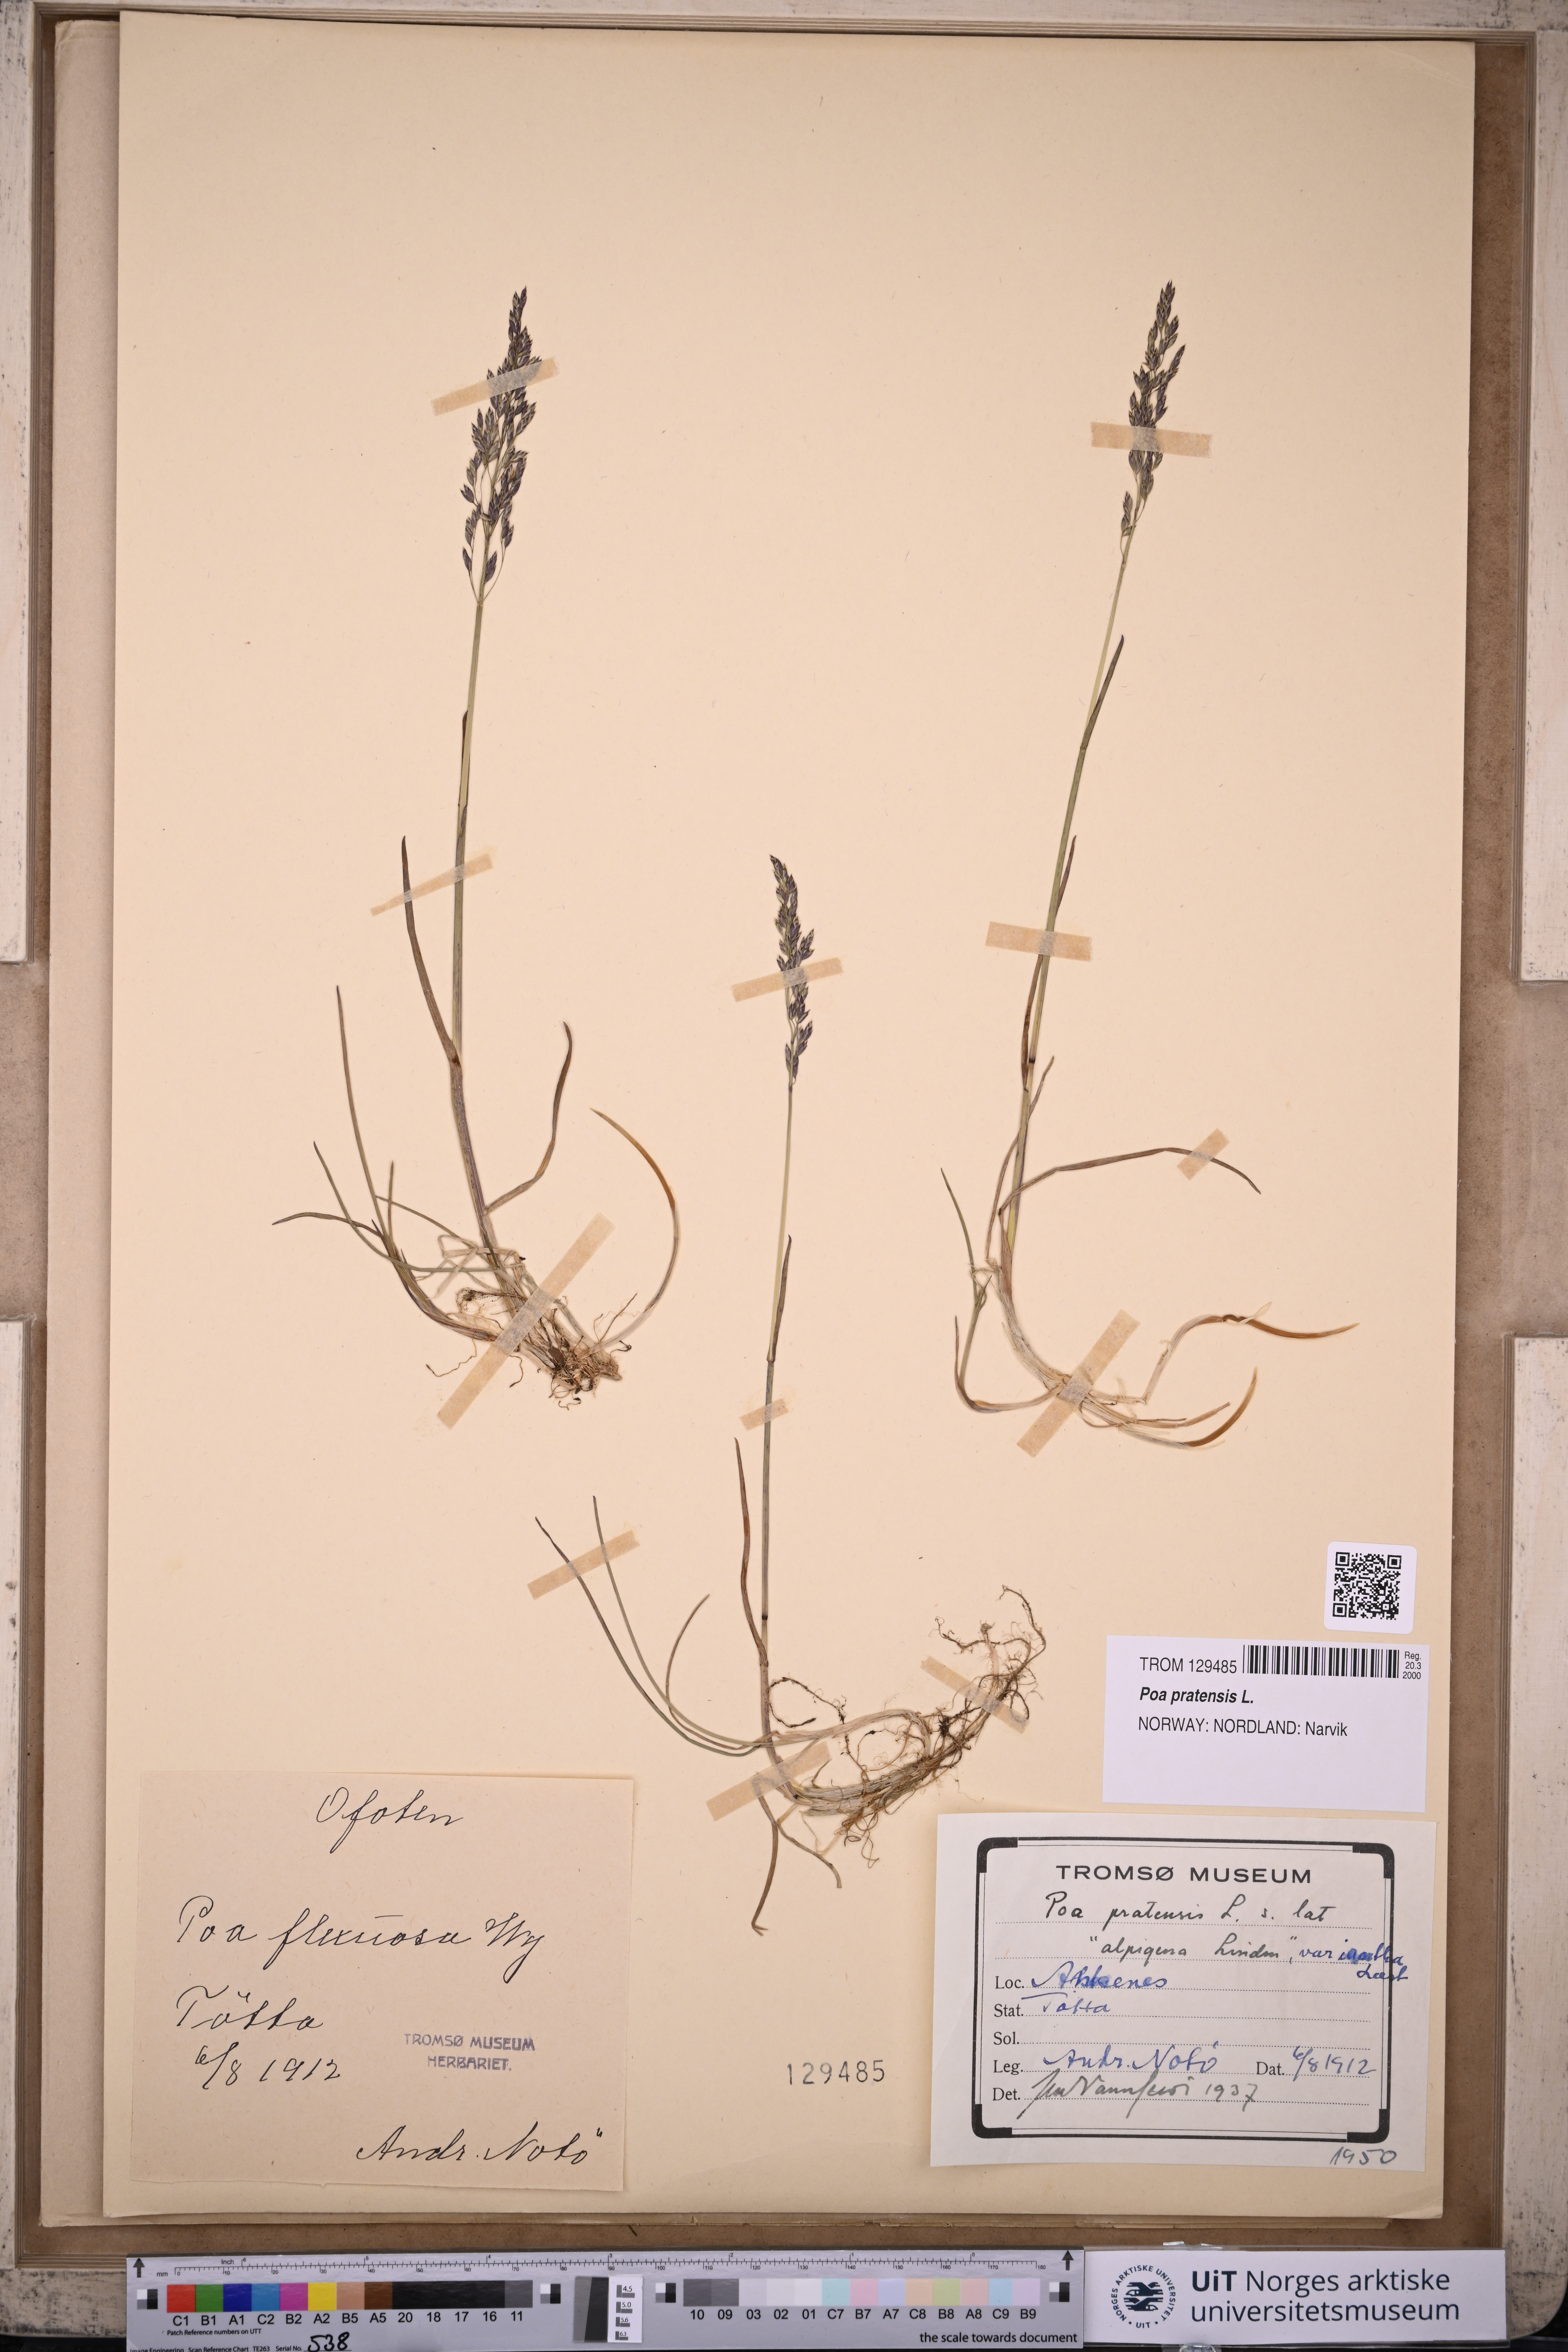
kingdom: Plantae
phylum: Tracheophyta
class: Liliopsida
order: Poales
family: Poaceae
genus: Poa
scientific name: Poa pratensis
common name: Kentucky bluegrass
